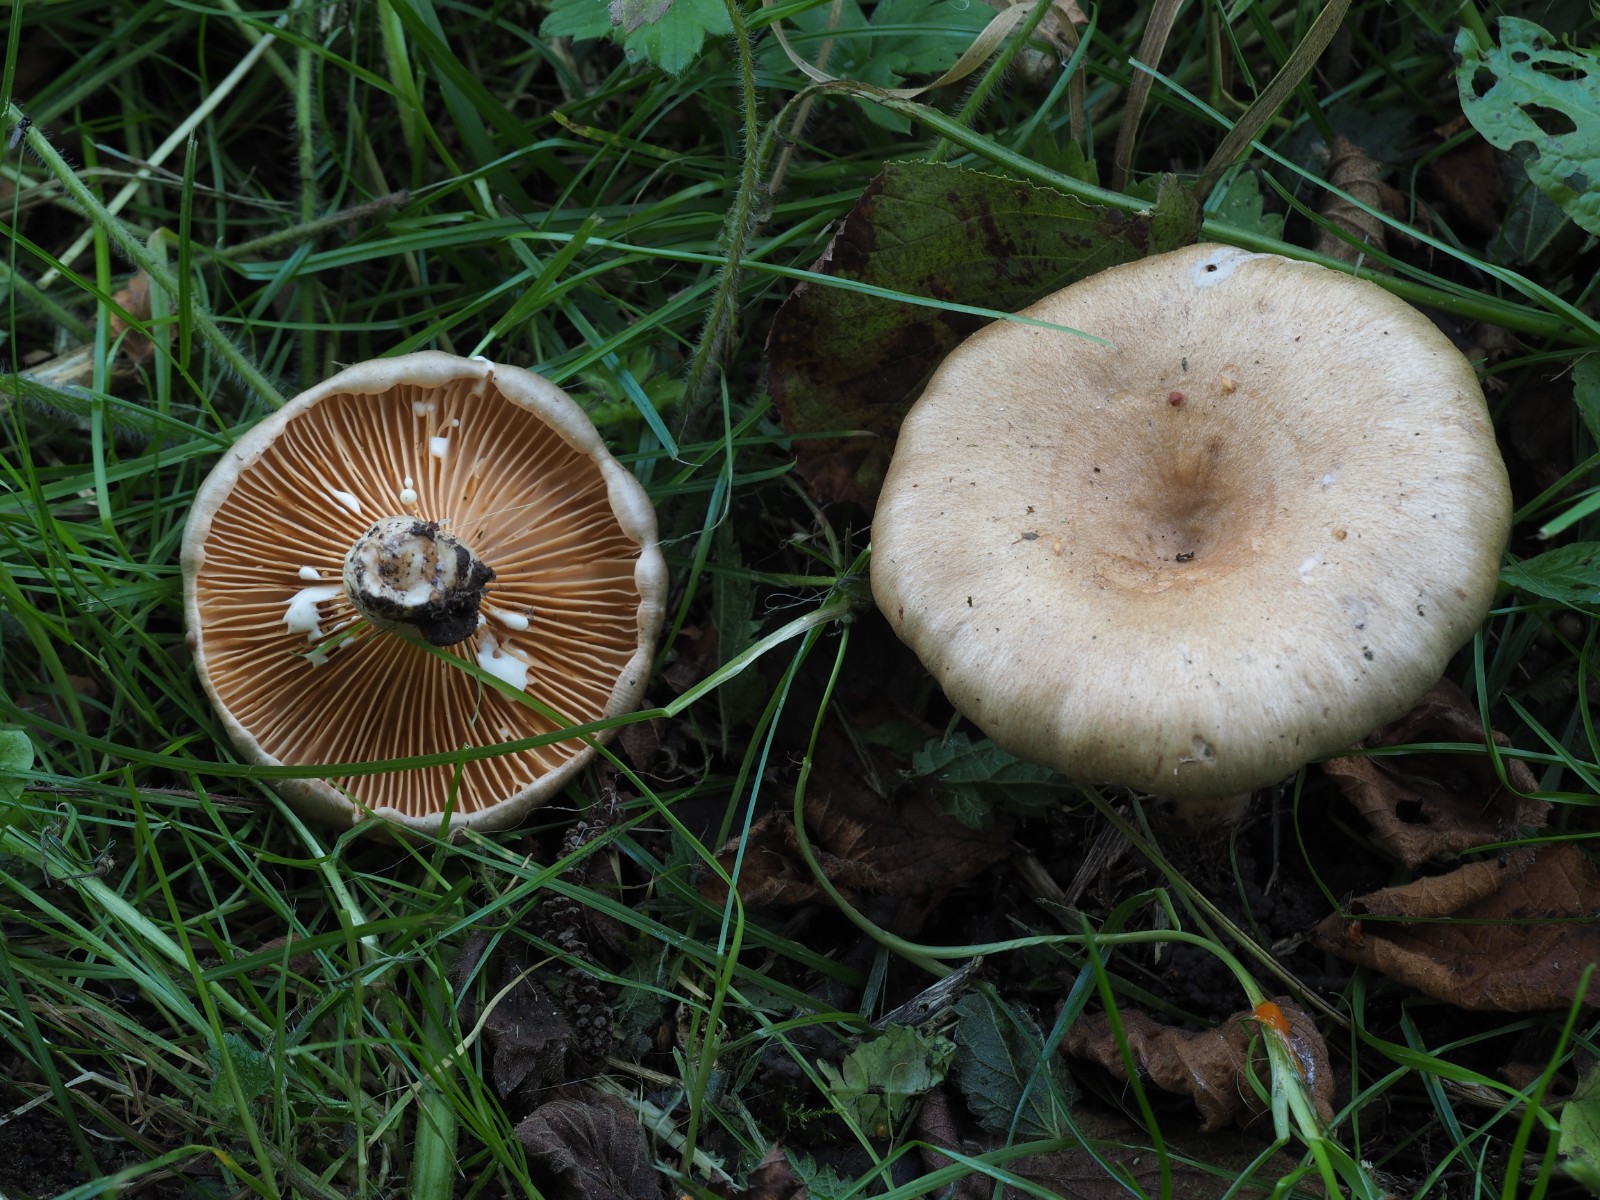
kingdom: Fungi
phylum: Basidiomycota
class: Agaricomycetes
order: Russulales
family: Russulaceae
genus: Lactarius
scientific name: Lactarius pyrogalus
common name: hassel-mælkehat
